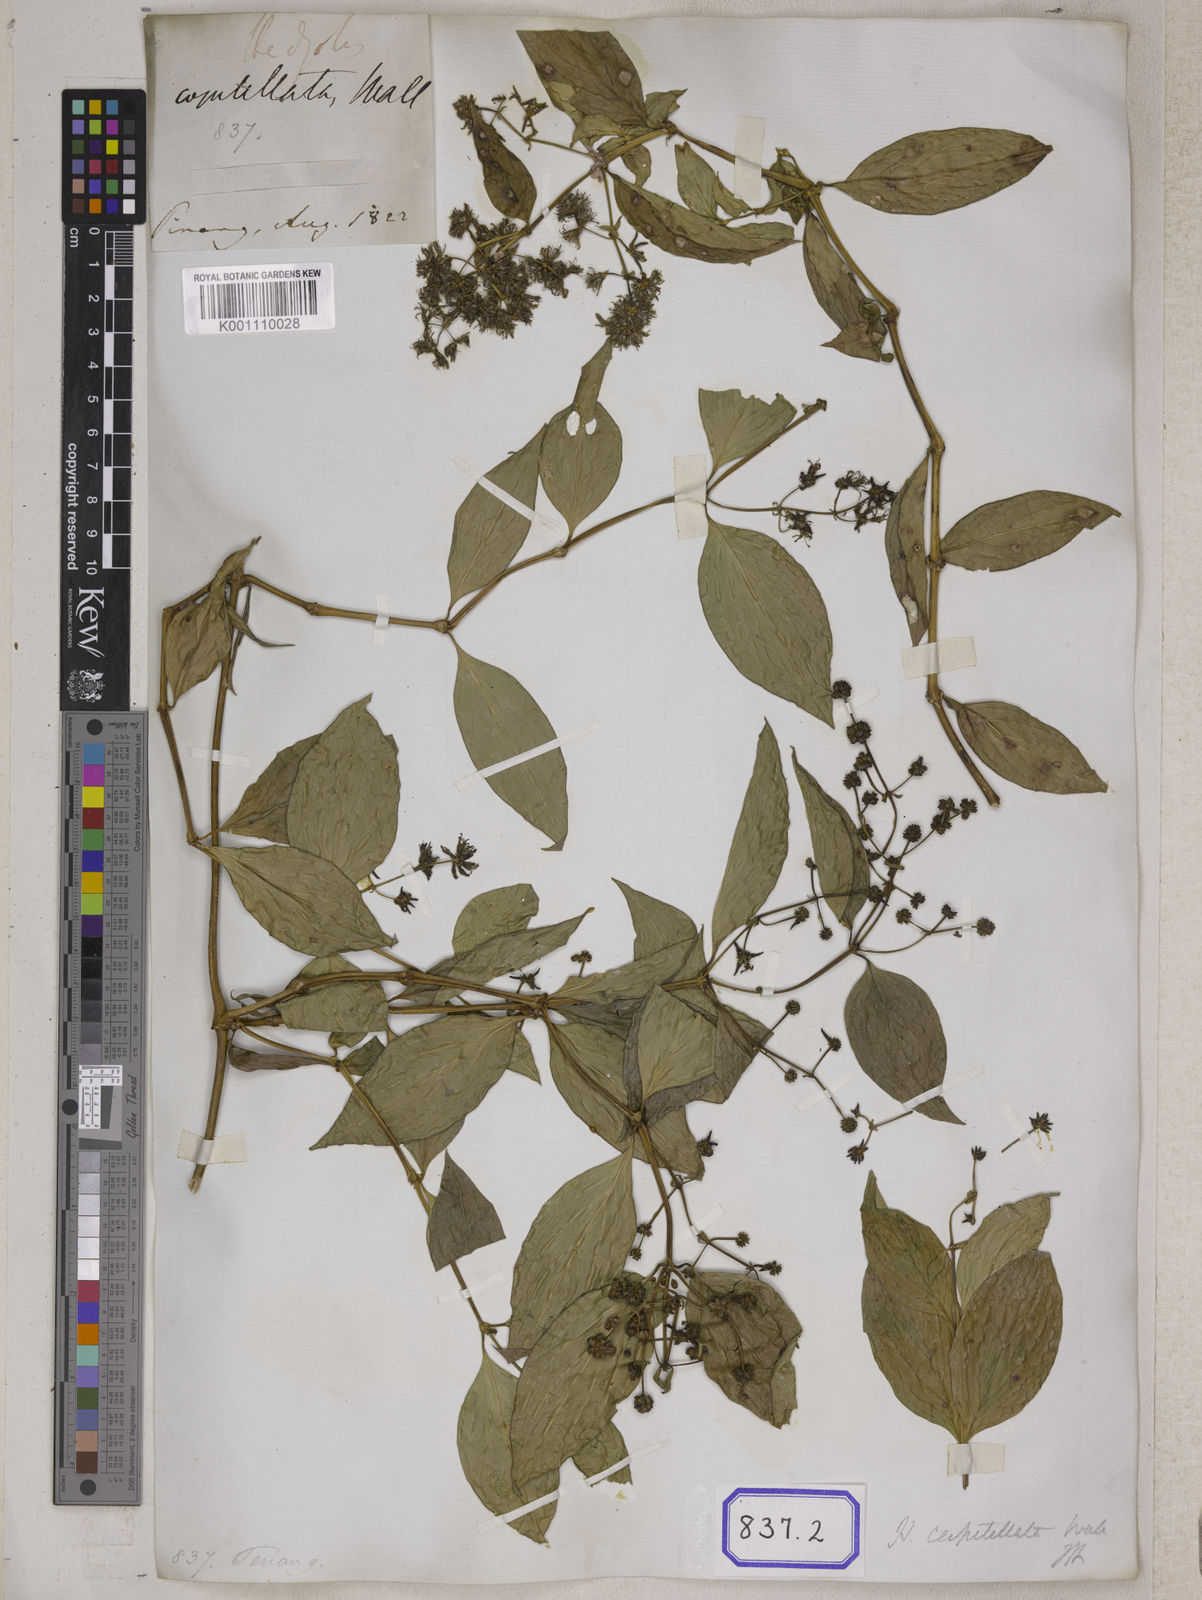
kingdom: Plantae
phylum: Tracheophyta
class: Magnoliopsida
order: Gentianales
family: Rubiaceae
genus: Hedyotis
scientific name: Hedyotis
